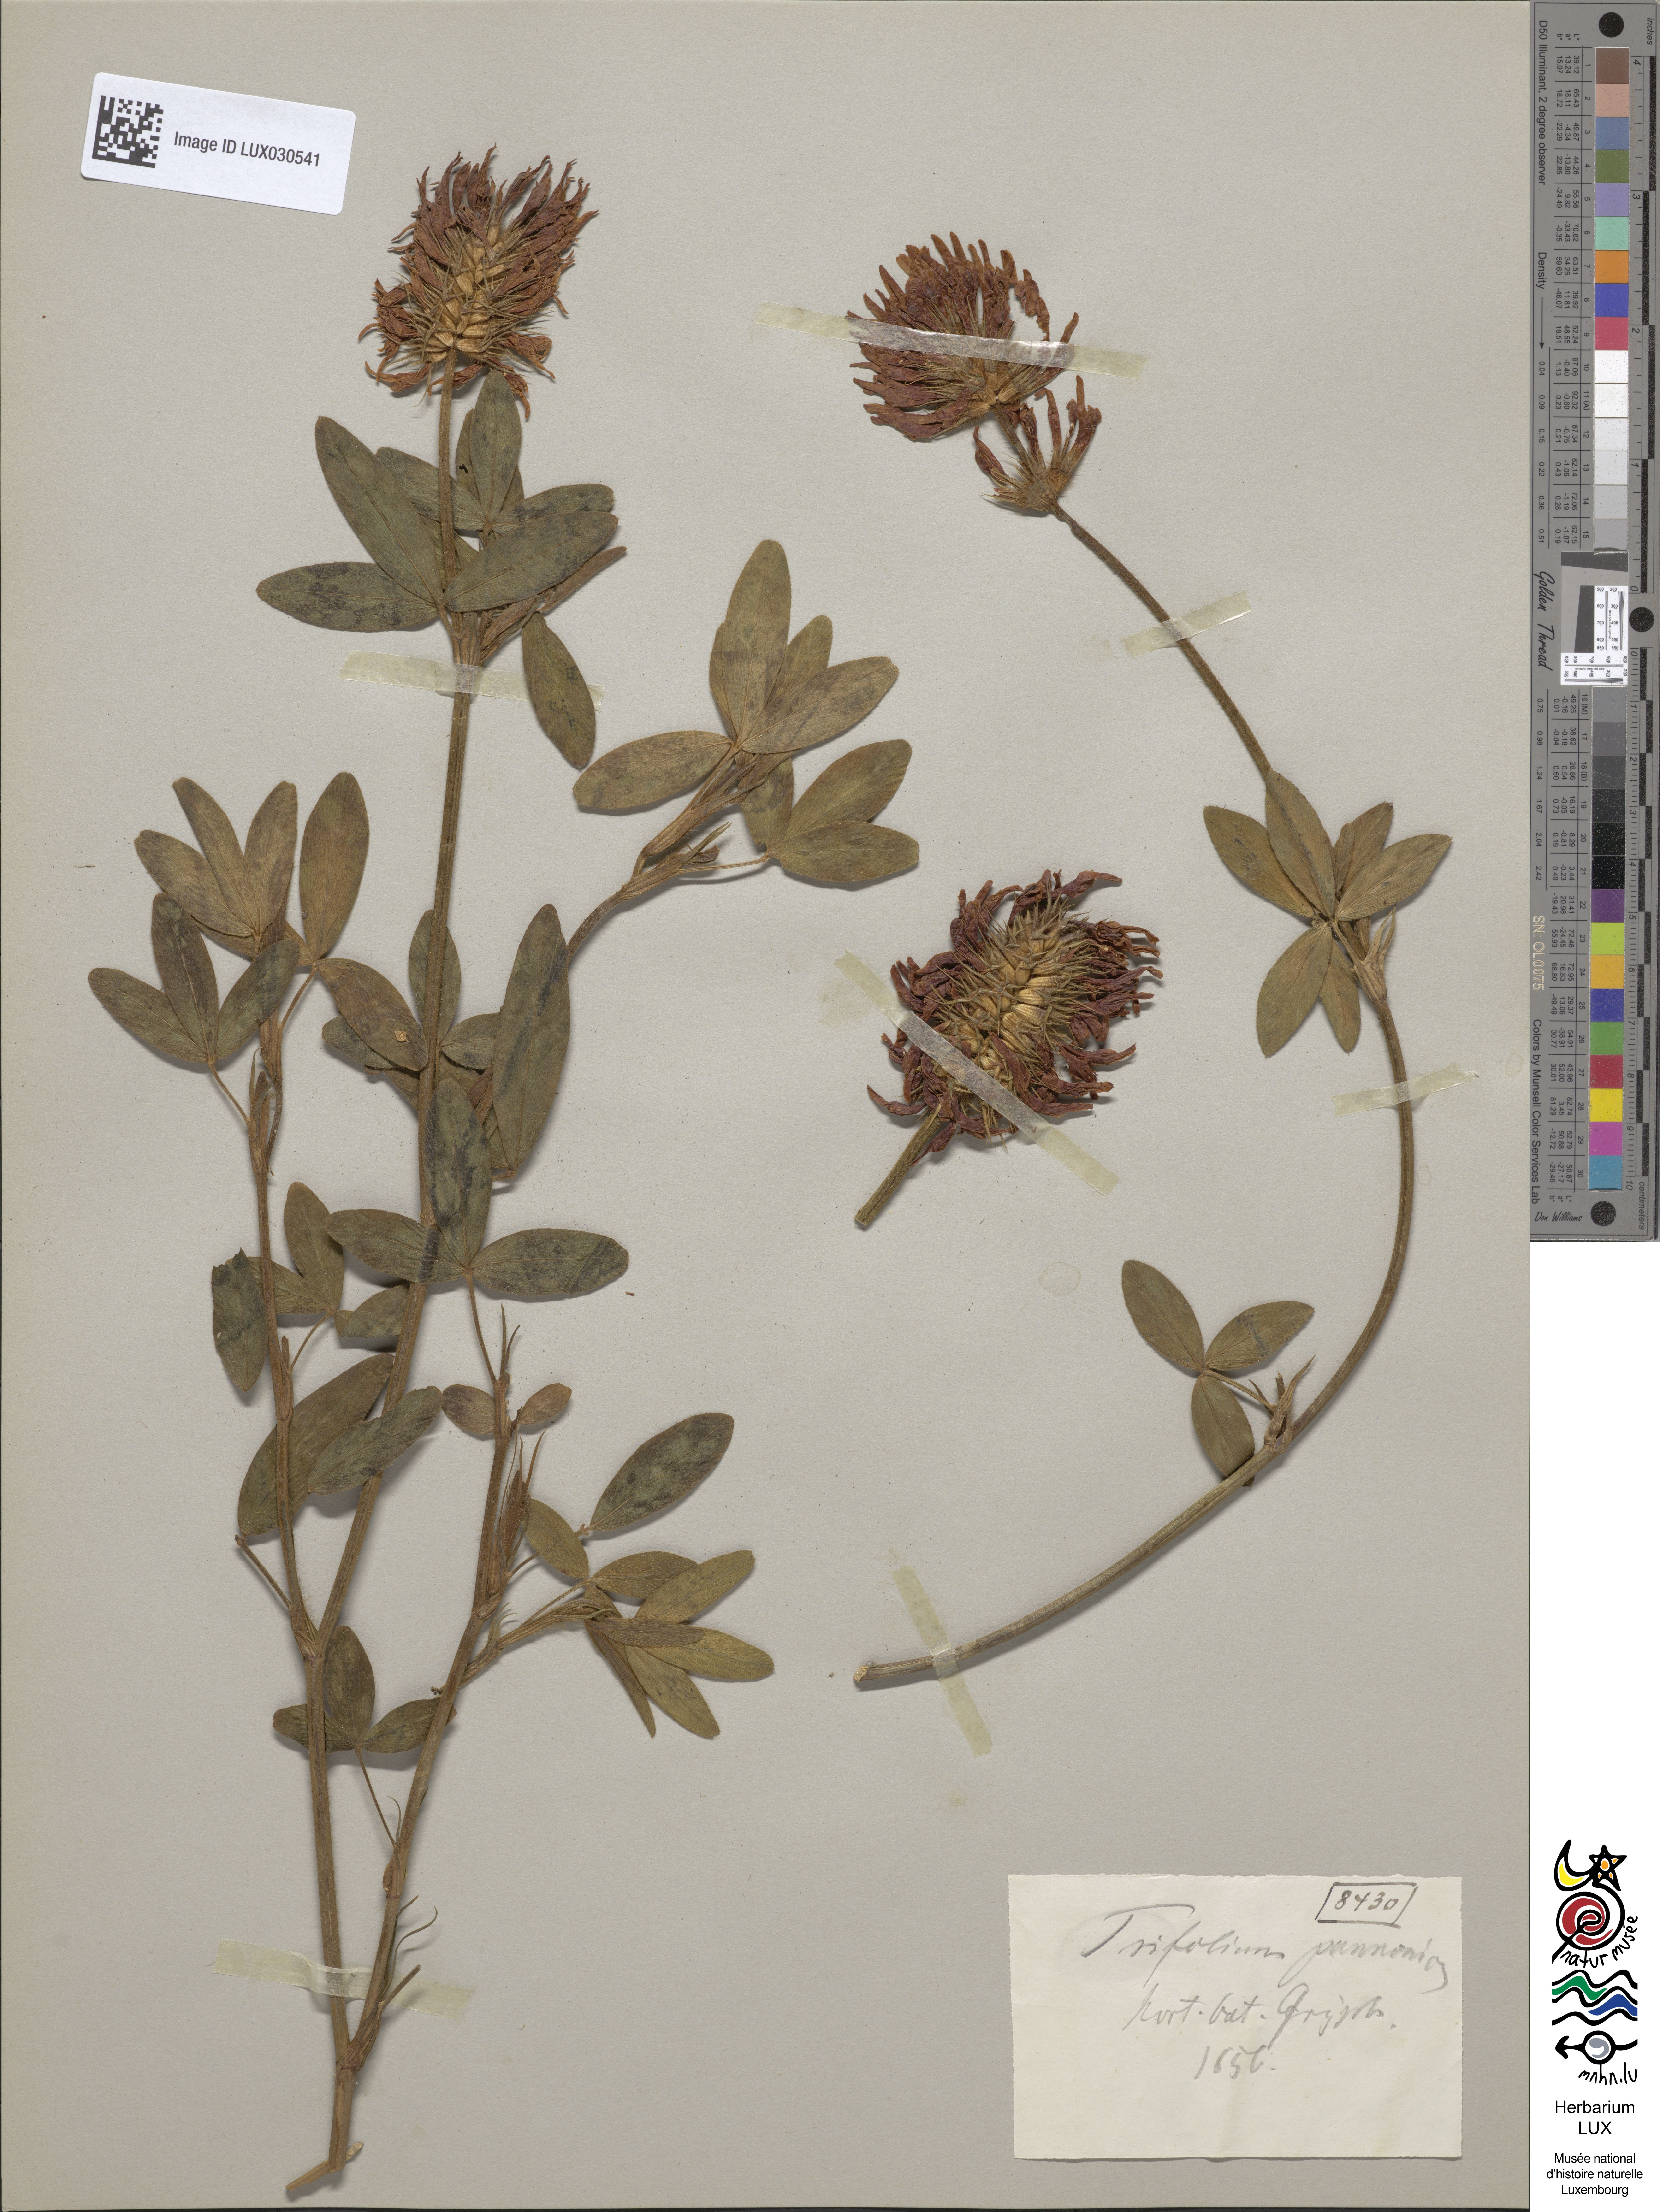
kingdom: Plantae
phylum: Tracheophyta
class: Magnoliopsida
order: Fabales
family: Fabaceae
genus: Trifolium
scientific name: Trifolium pannonicum
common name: Hungarian clover
